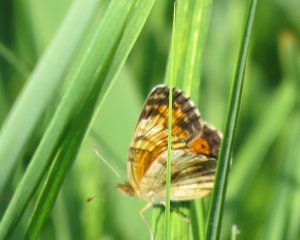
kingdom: Animalia
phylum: Arthropoda
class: Insecta
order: Lepidoptera
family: Nymphalidae
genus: Phyciodes
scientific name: Phyciodes tharos
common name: Northern Crescent
